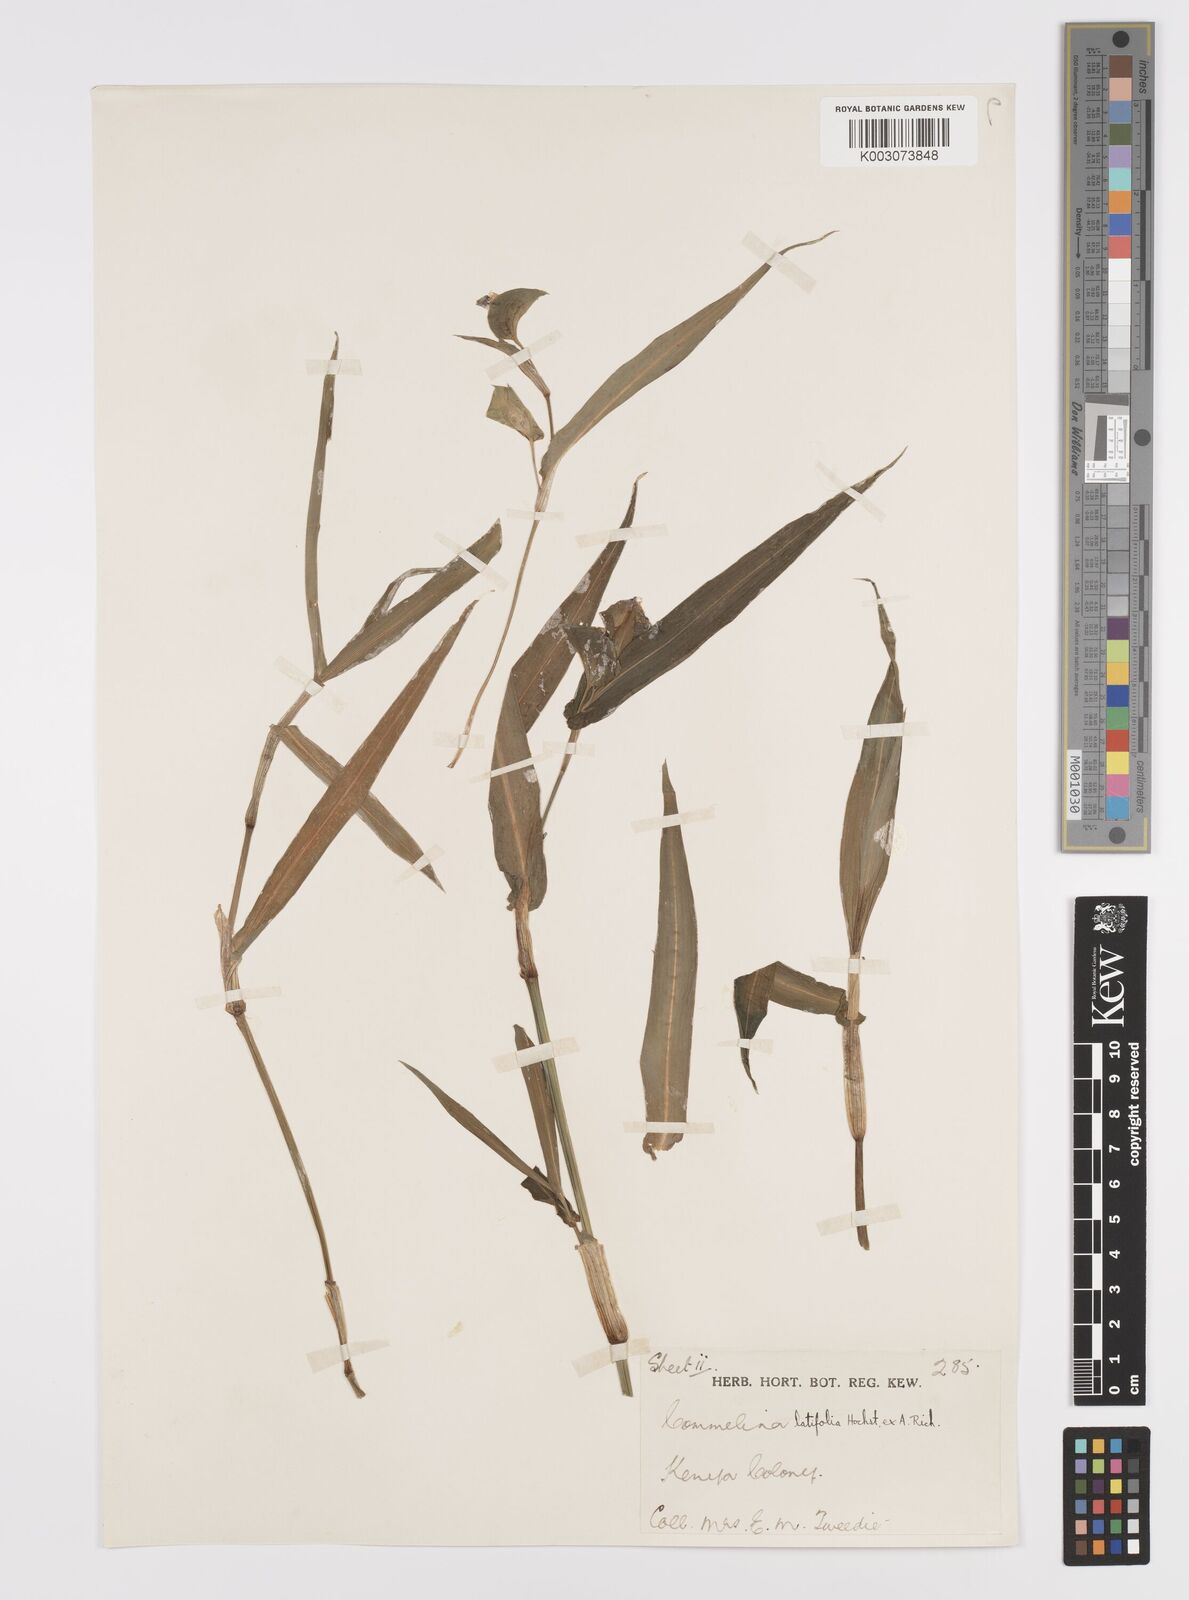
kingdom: Plantae
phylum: Tracheophyta
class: Liliopsida
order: Commelinales
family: Commelinaceae
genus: Commelina
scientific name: Commelina latifolia
